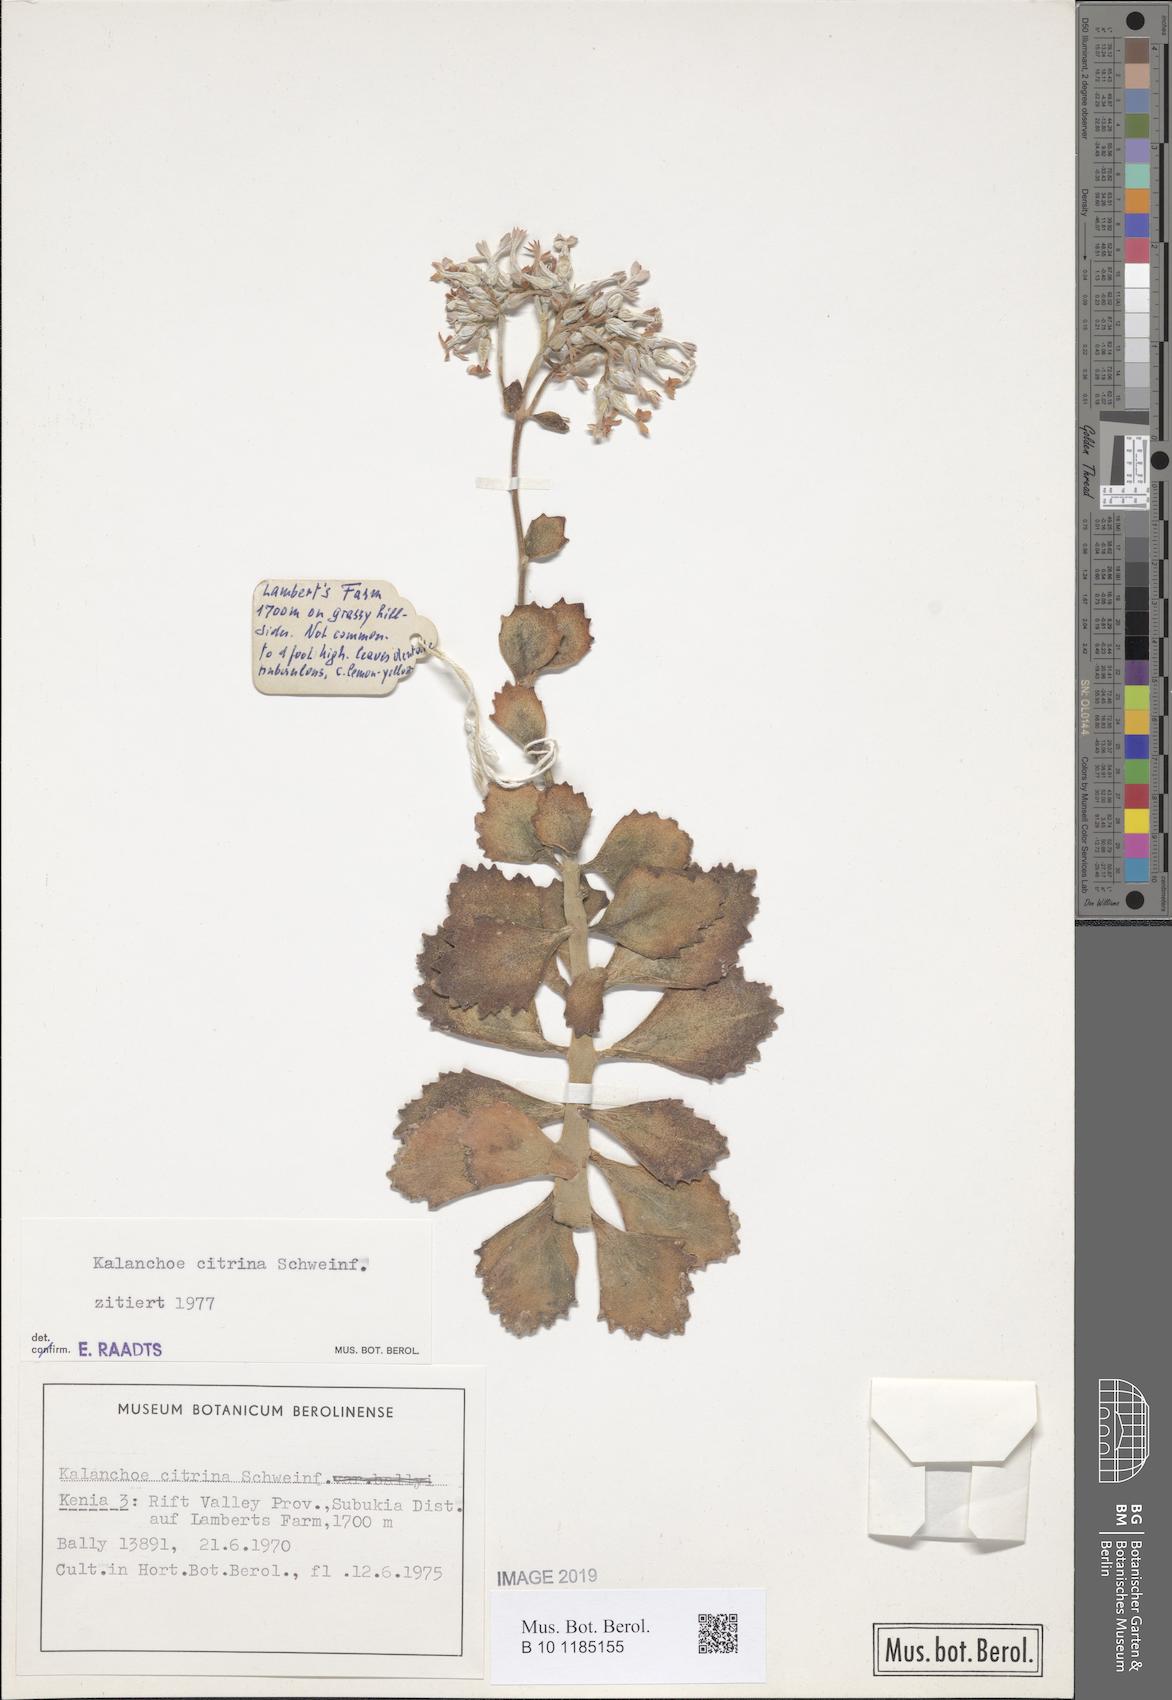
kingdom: Plantae
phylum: Tracheophyta
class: Magnoliopsida
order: Saxifragales
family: Crassulaceae
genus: Kalanchoe
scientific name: Kalanchoe citrina
